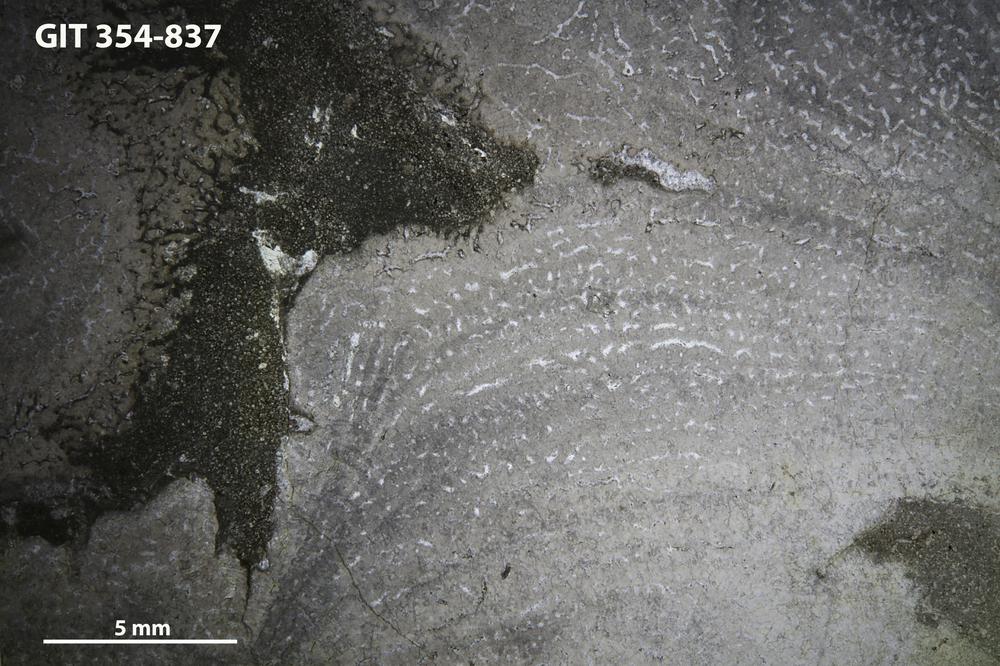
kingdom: Animalia
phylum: Porifera
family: Stromatoporidae
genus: Parallelostroma
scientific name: Parallelostroma
